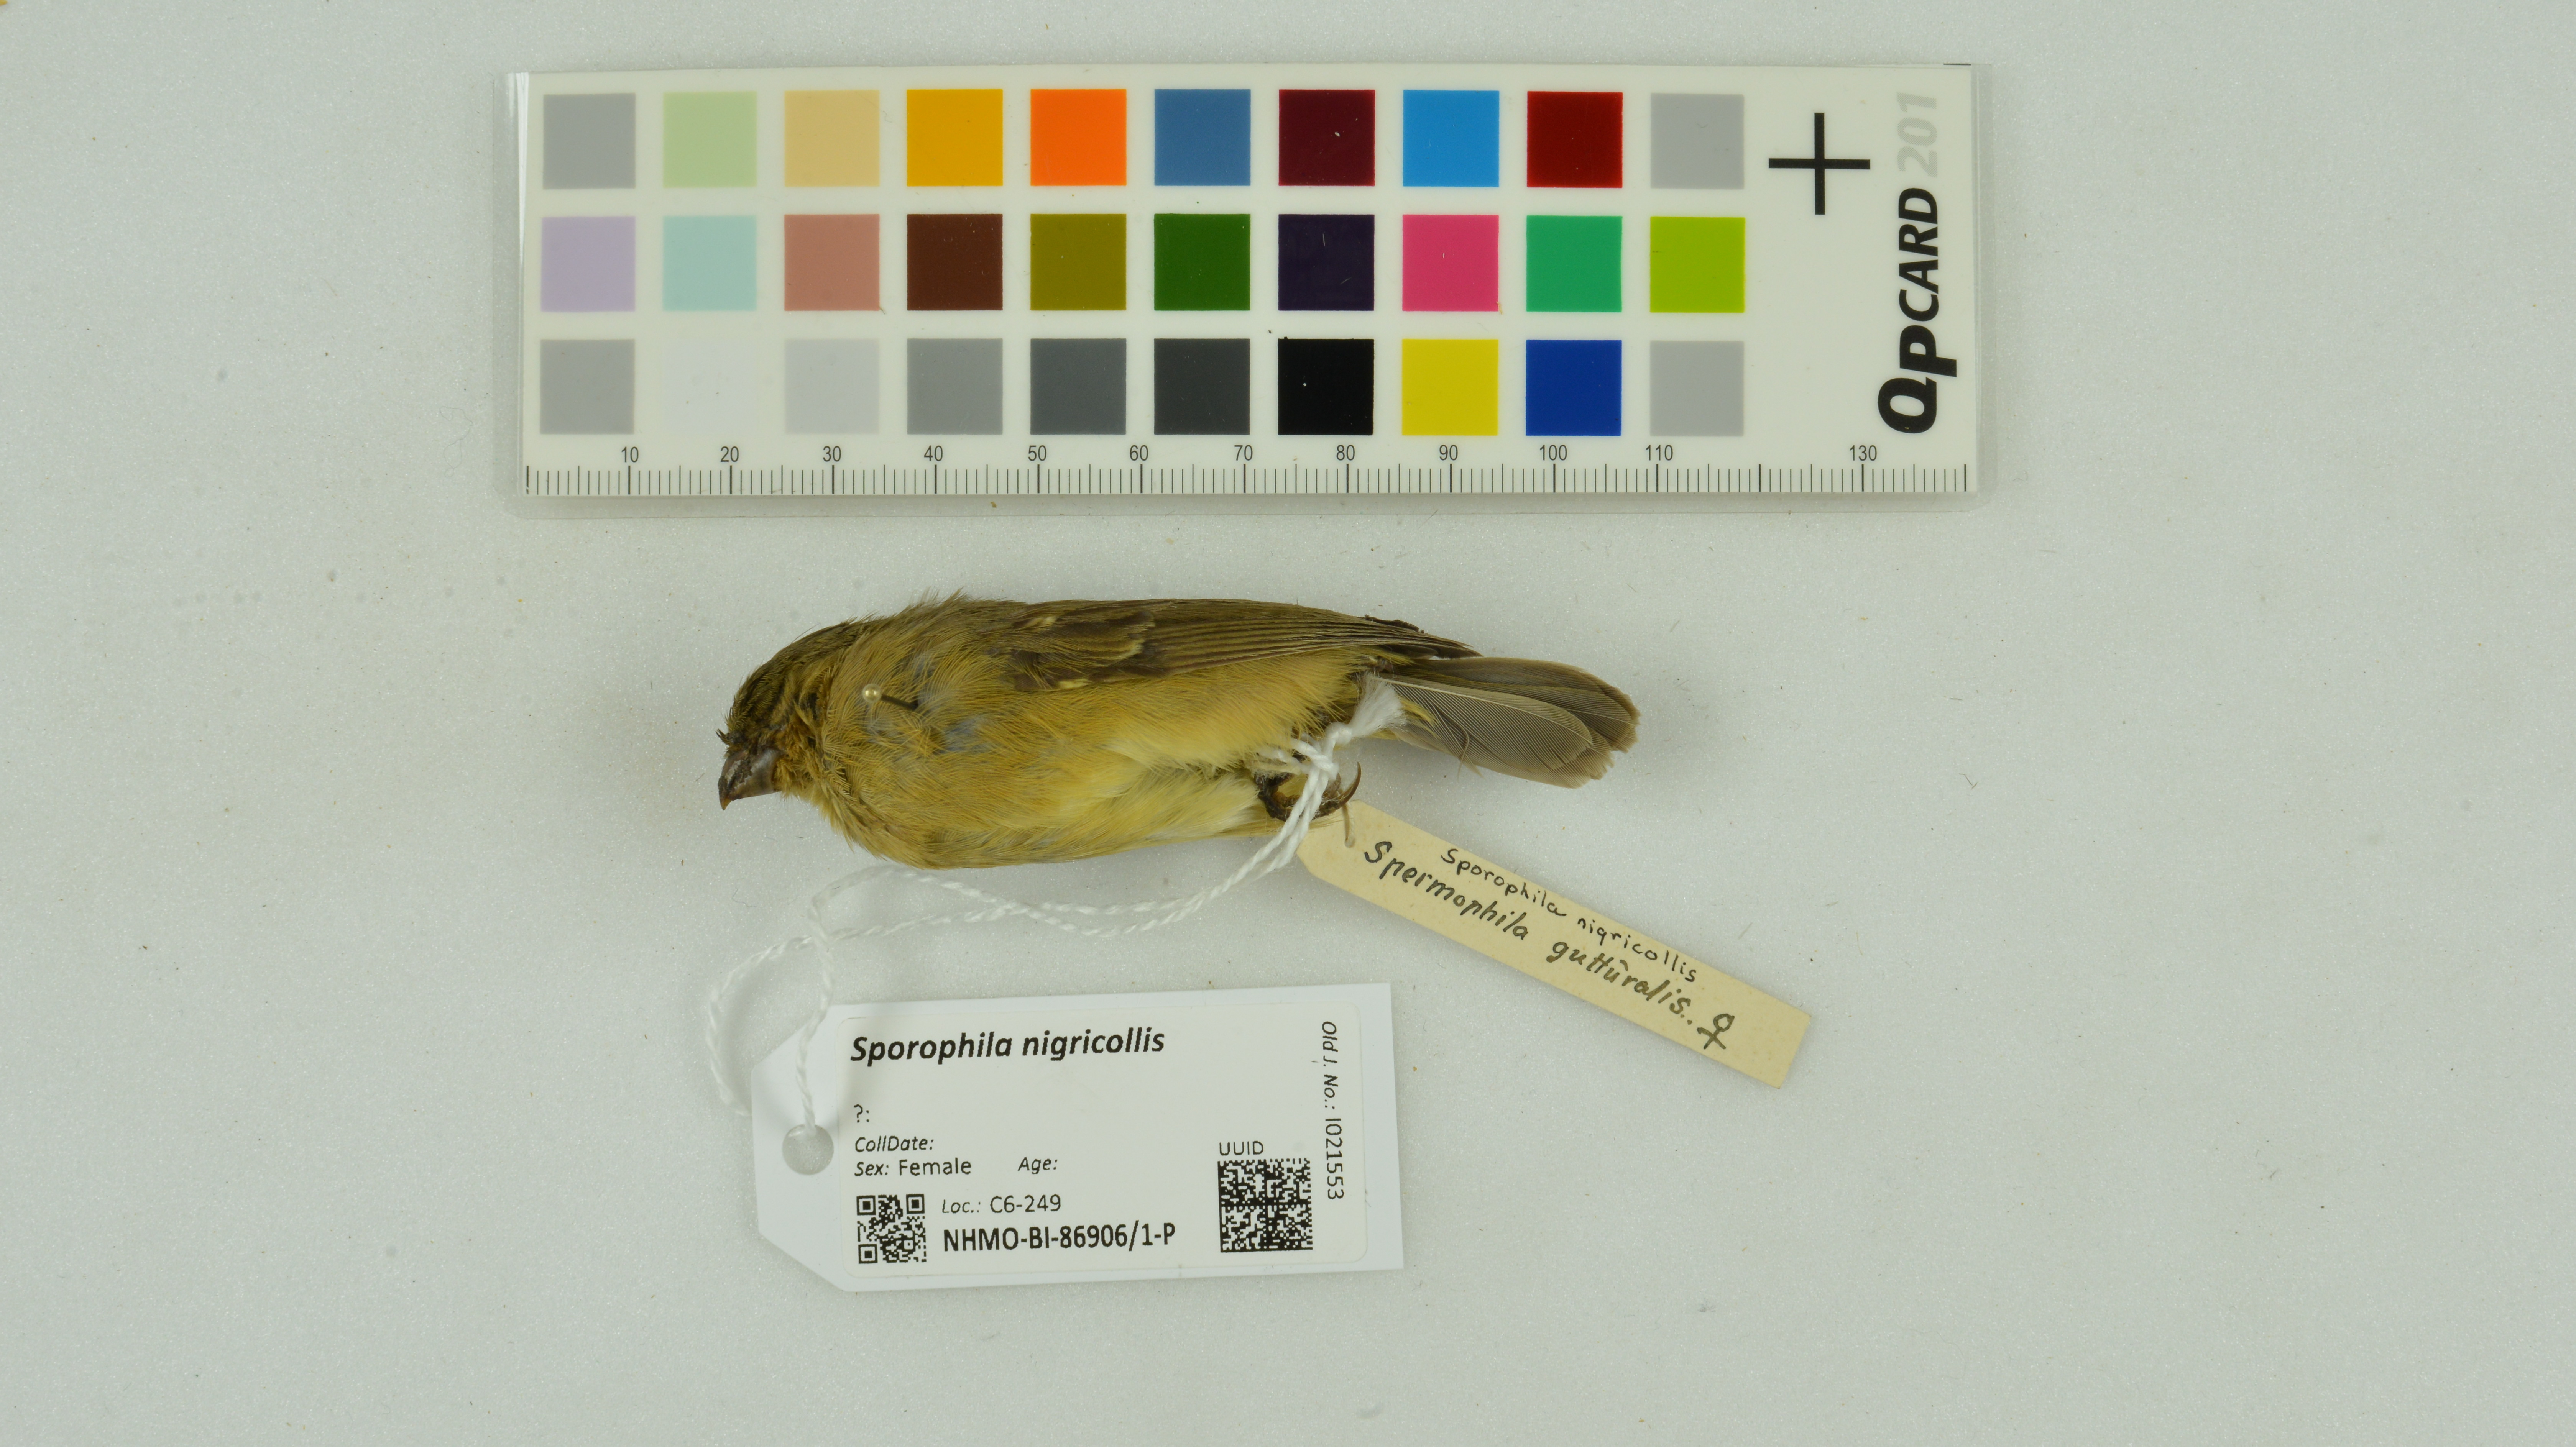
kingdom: Animalia
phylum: Chordata
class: Aves
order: Passeriformes
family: Thraupidae
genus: Sporophila
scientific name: Sporophila nigricollis
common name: Yellow-bellied seedeater
